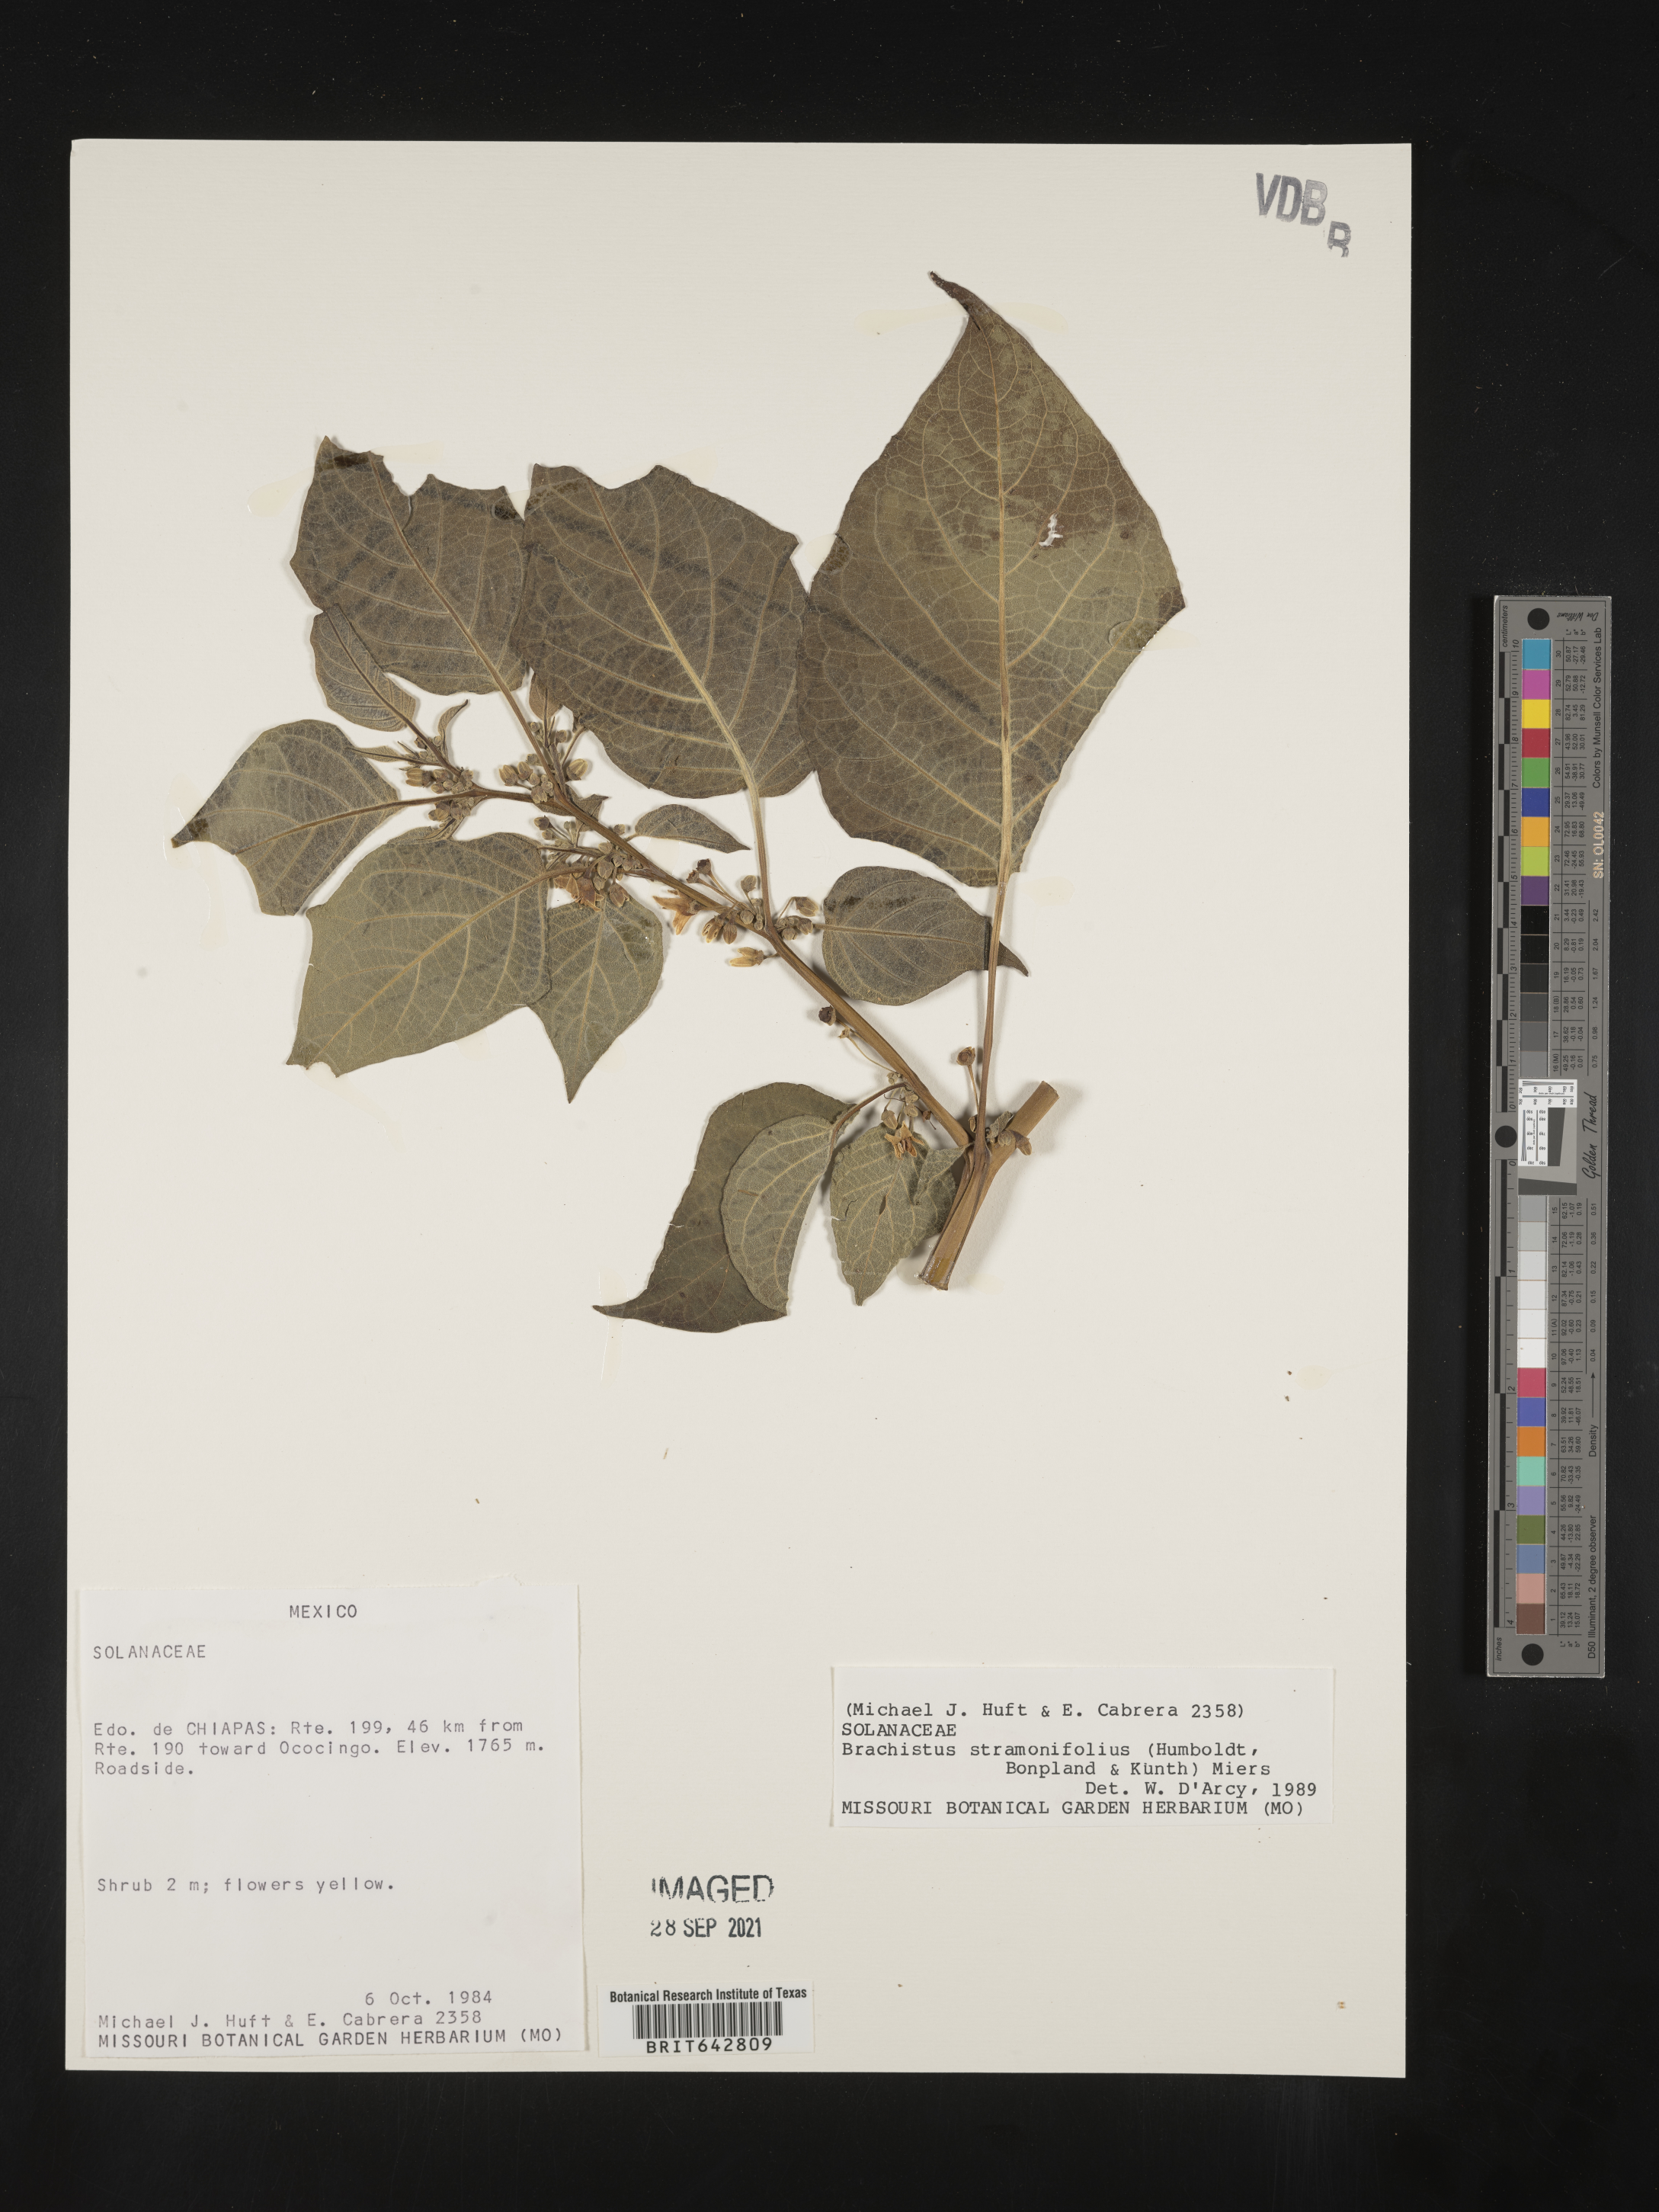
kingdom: Plantae
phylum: Tracheophyta
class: Magnoliopsida
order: Solanales
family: Solanaceae
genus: Brachistus
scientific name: Brachistus stramonifolius
